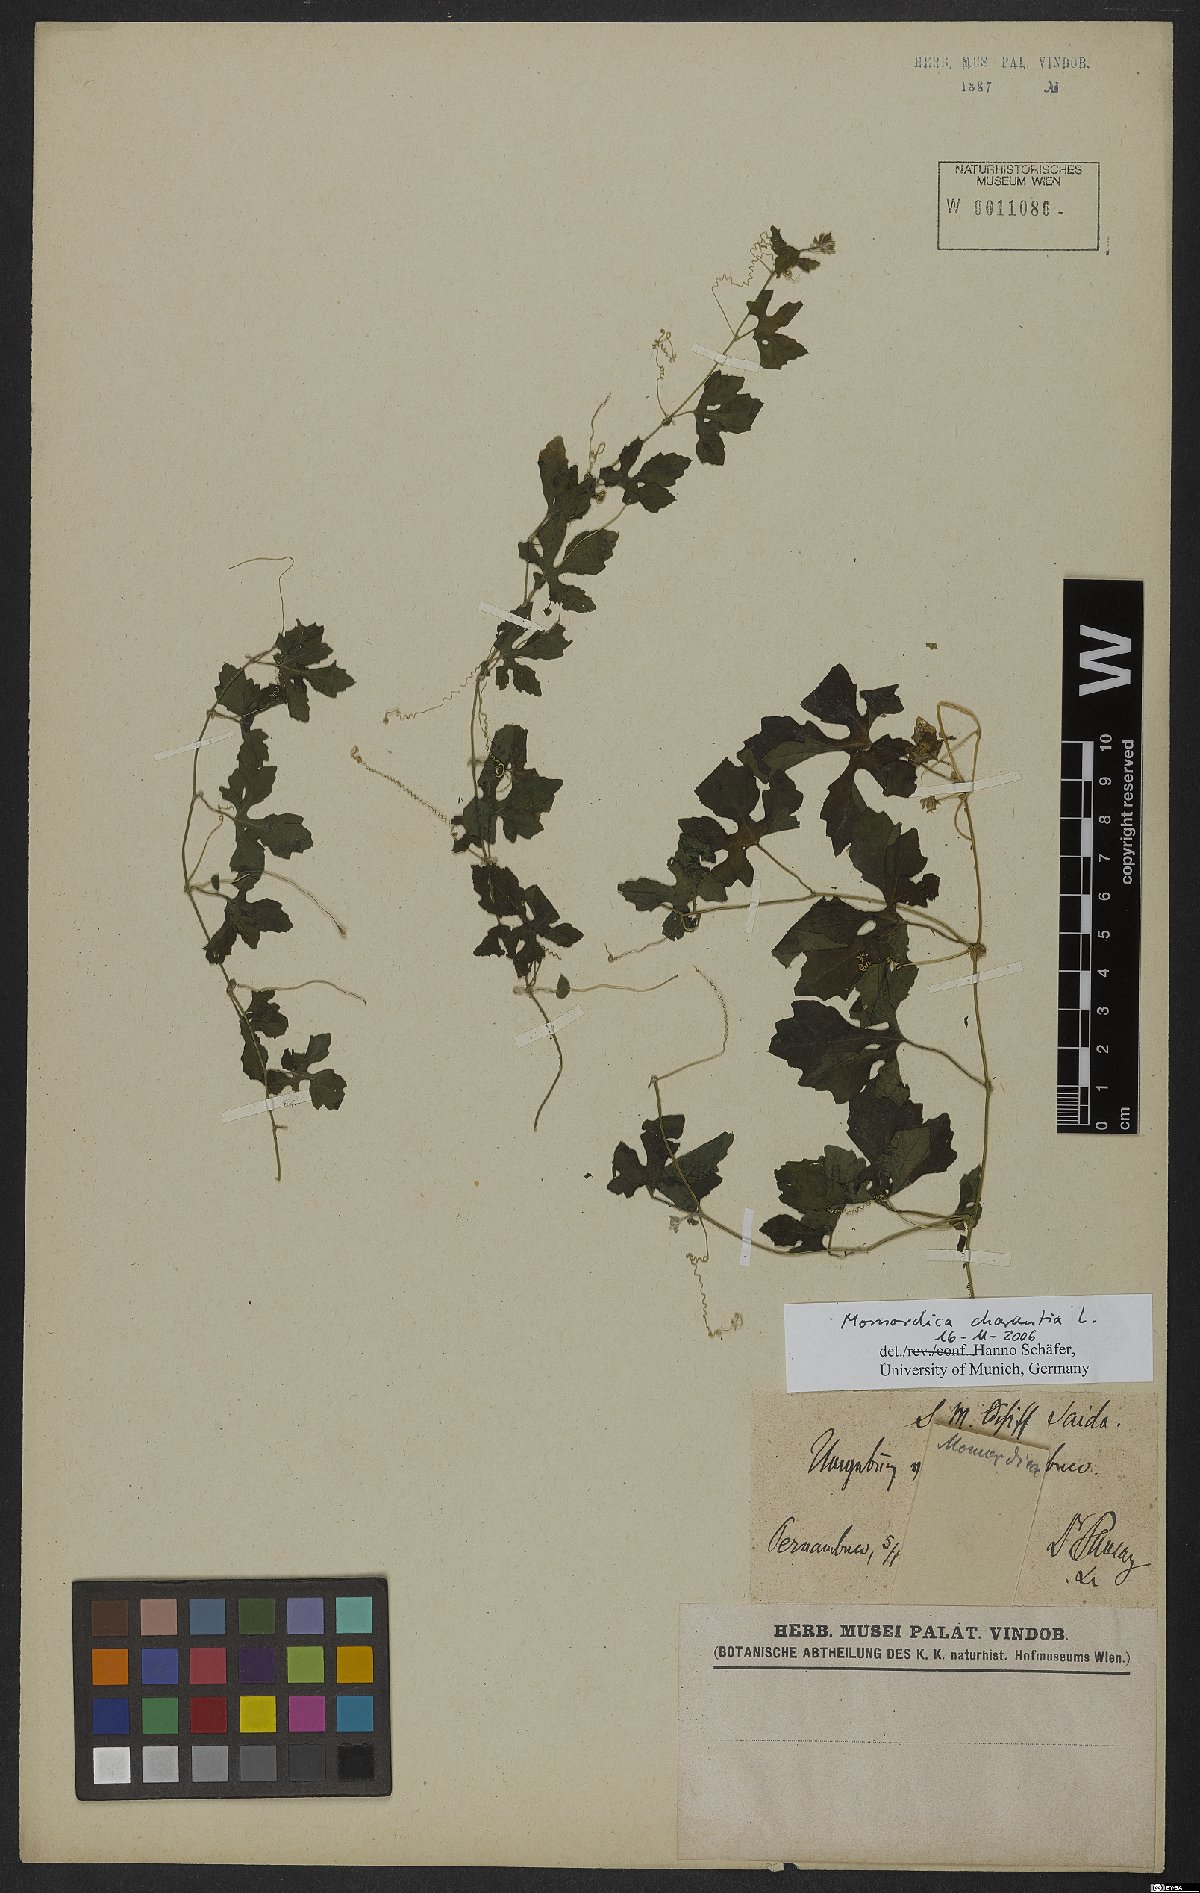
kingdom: Plantae
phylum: Tracheophyta
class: Magnoliopsida
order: Cucurbitales
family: Cucurbitaceae
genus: Momordica
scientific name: Momordica charantia
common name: Balsampear
